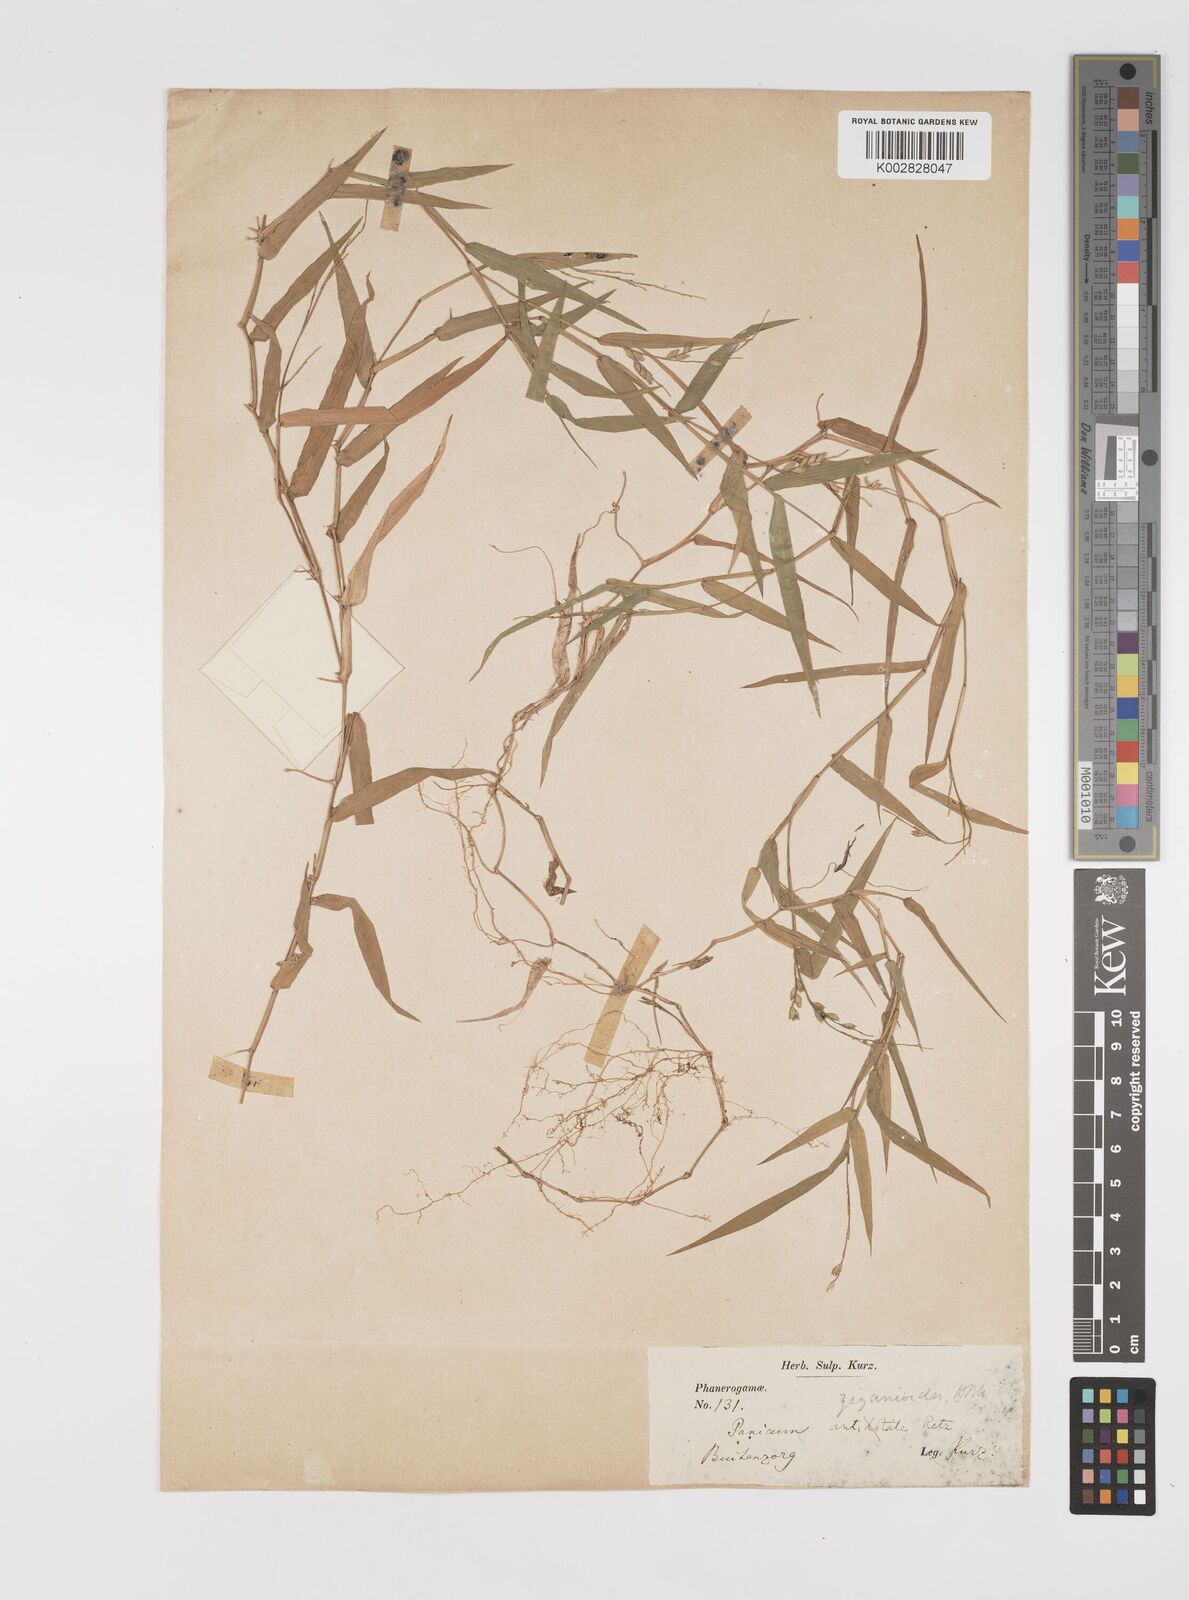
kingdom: Plantae
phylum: Tracheophyta
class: Liliopsida
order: Poales
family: Poaceae
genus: Acroceras
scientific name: Acroceras munroanum
